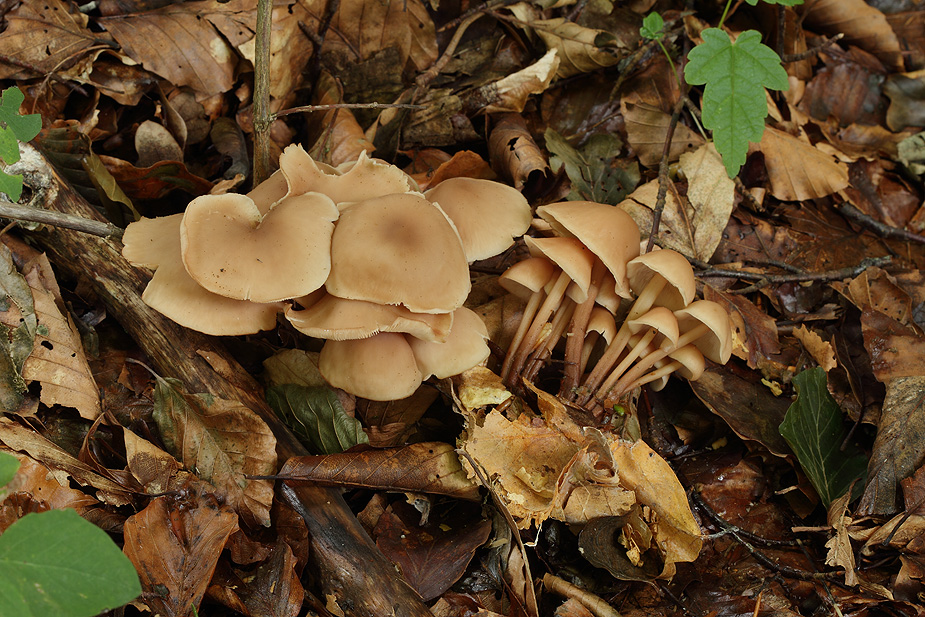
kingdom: Fungi
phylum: Basidiomycota
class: Agaricomycetes
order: Agaricales
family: Omphalotaceae
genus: Collybiopsis
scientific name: Collybiopsis confluens
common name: knippe-fladhat
